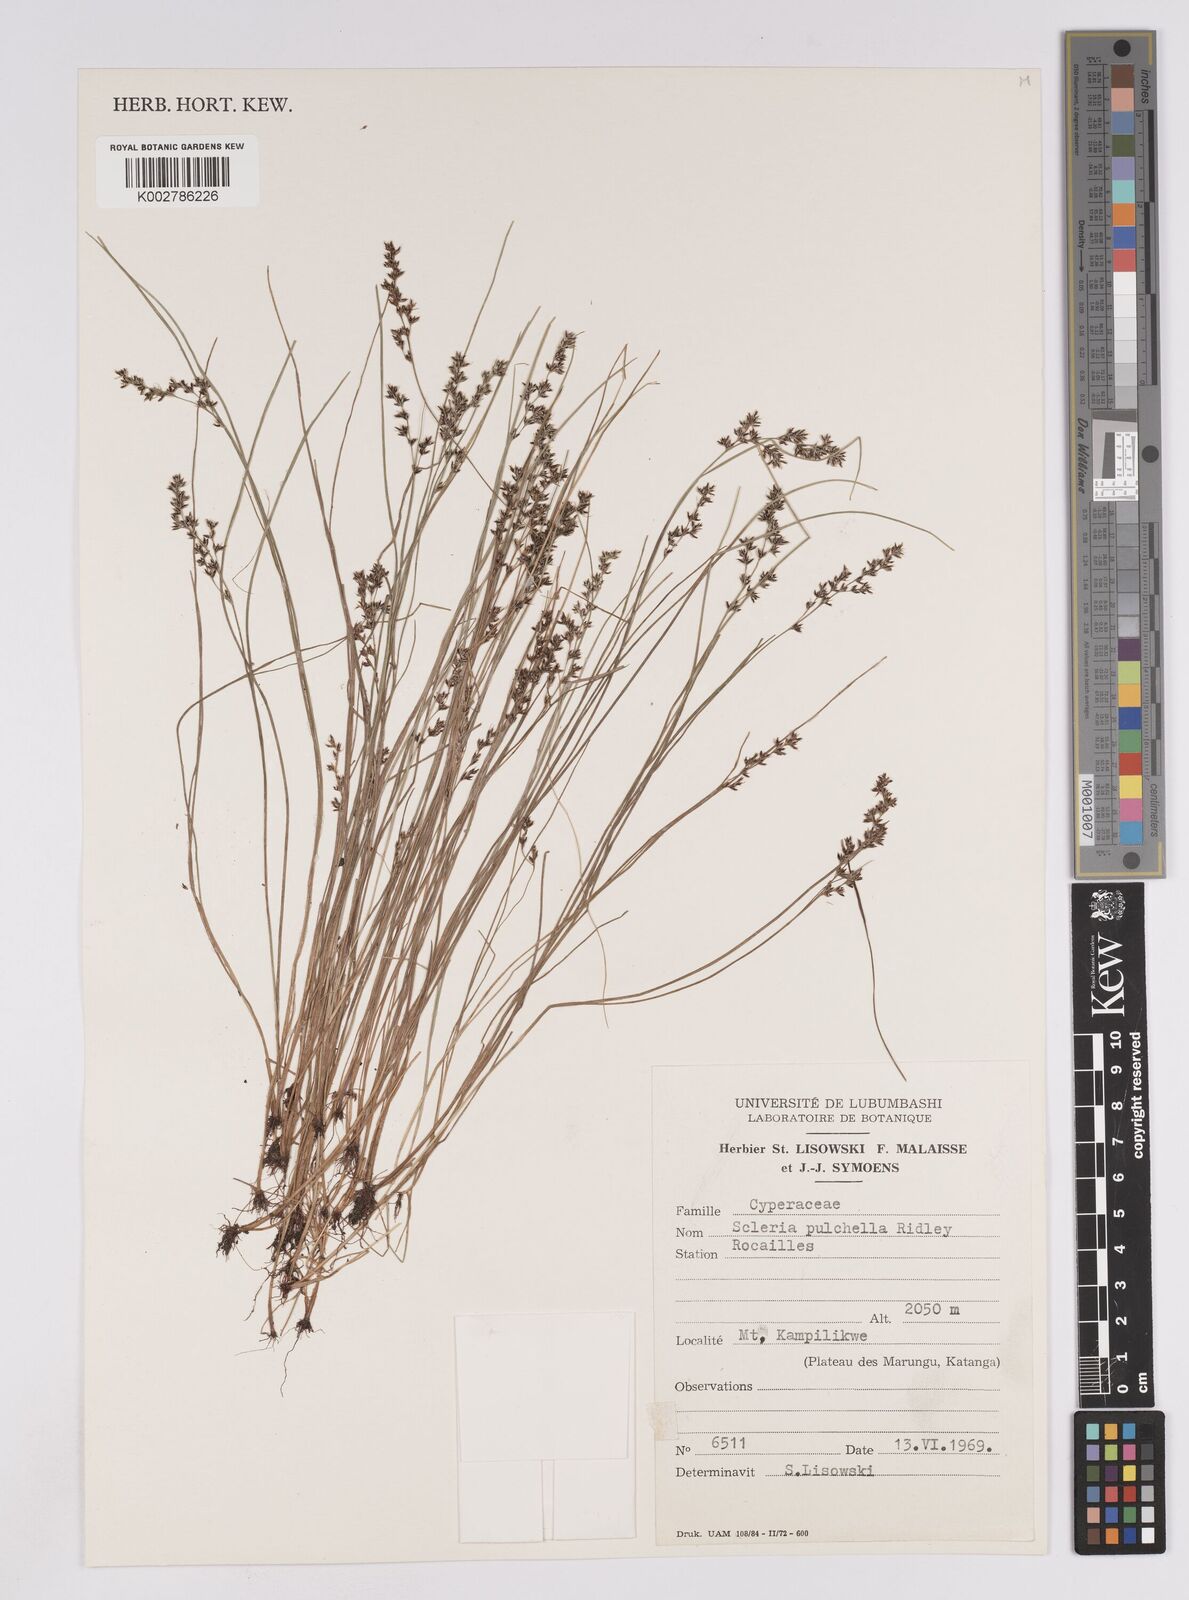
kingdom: Plantae
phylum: Tracheophyta
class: Liliopsida
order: Poales
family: Cyperaceae
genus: Scleria
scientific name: Scleria pulchella
